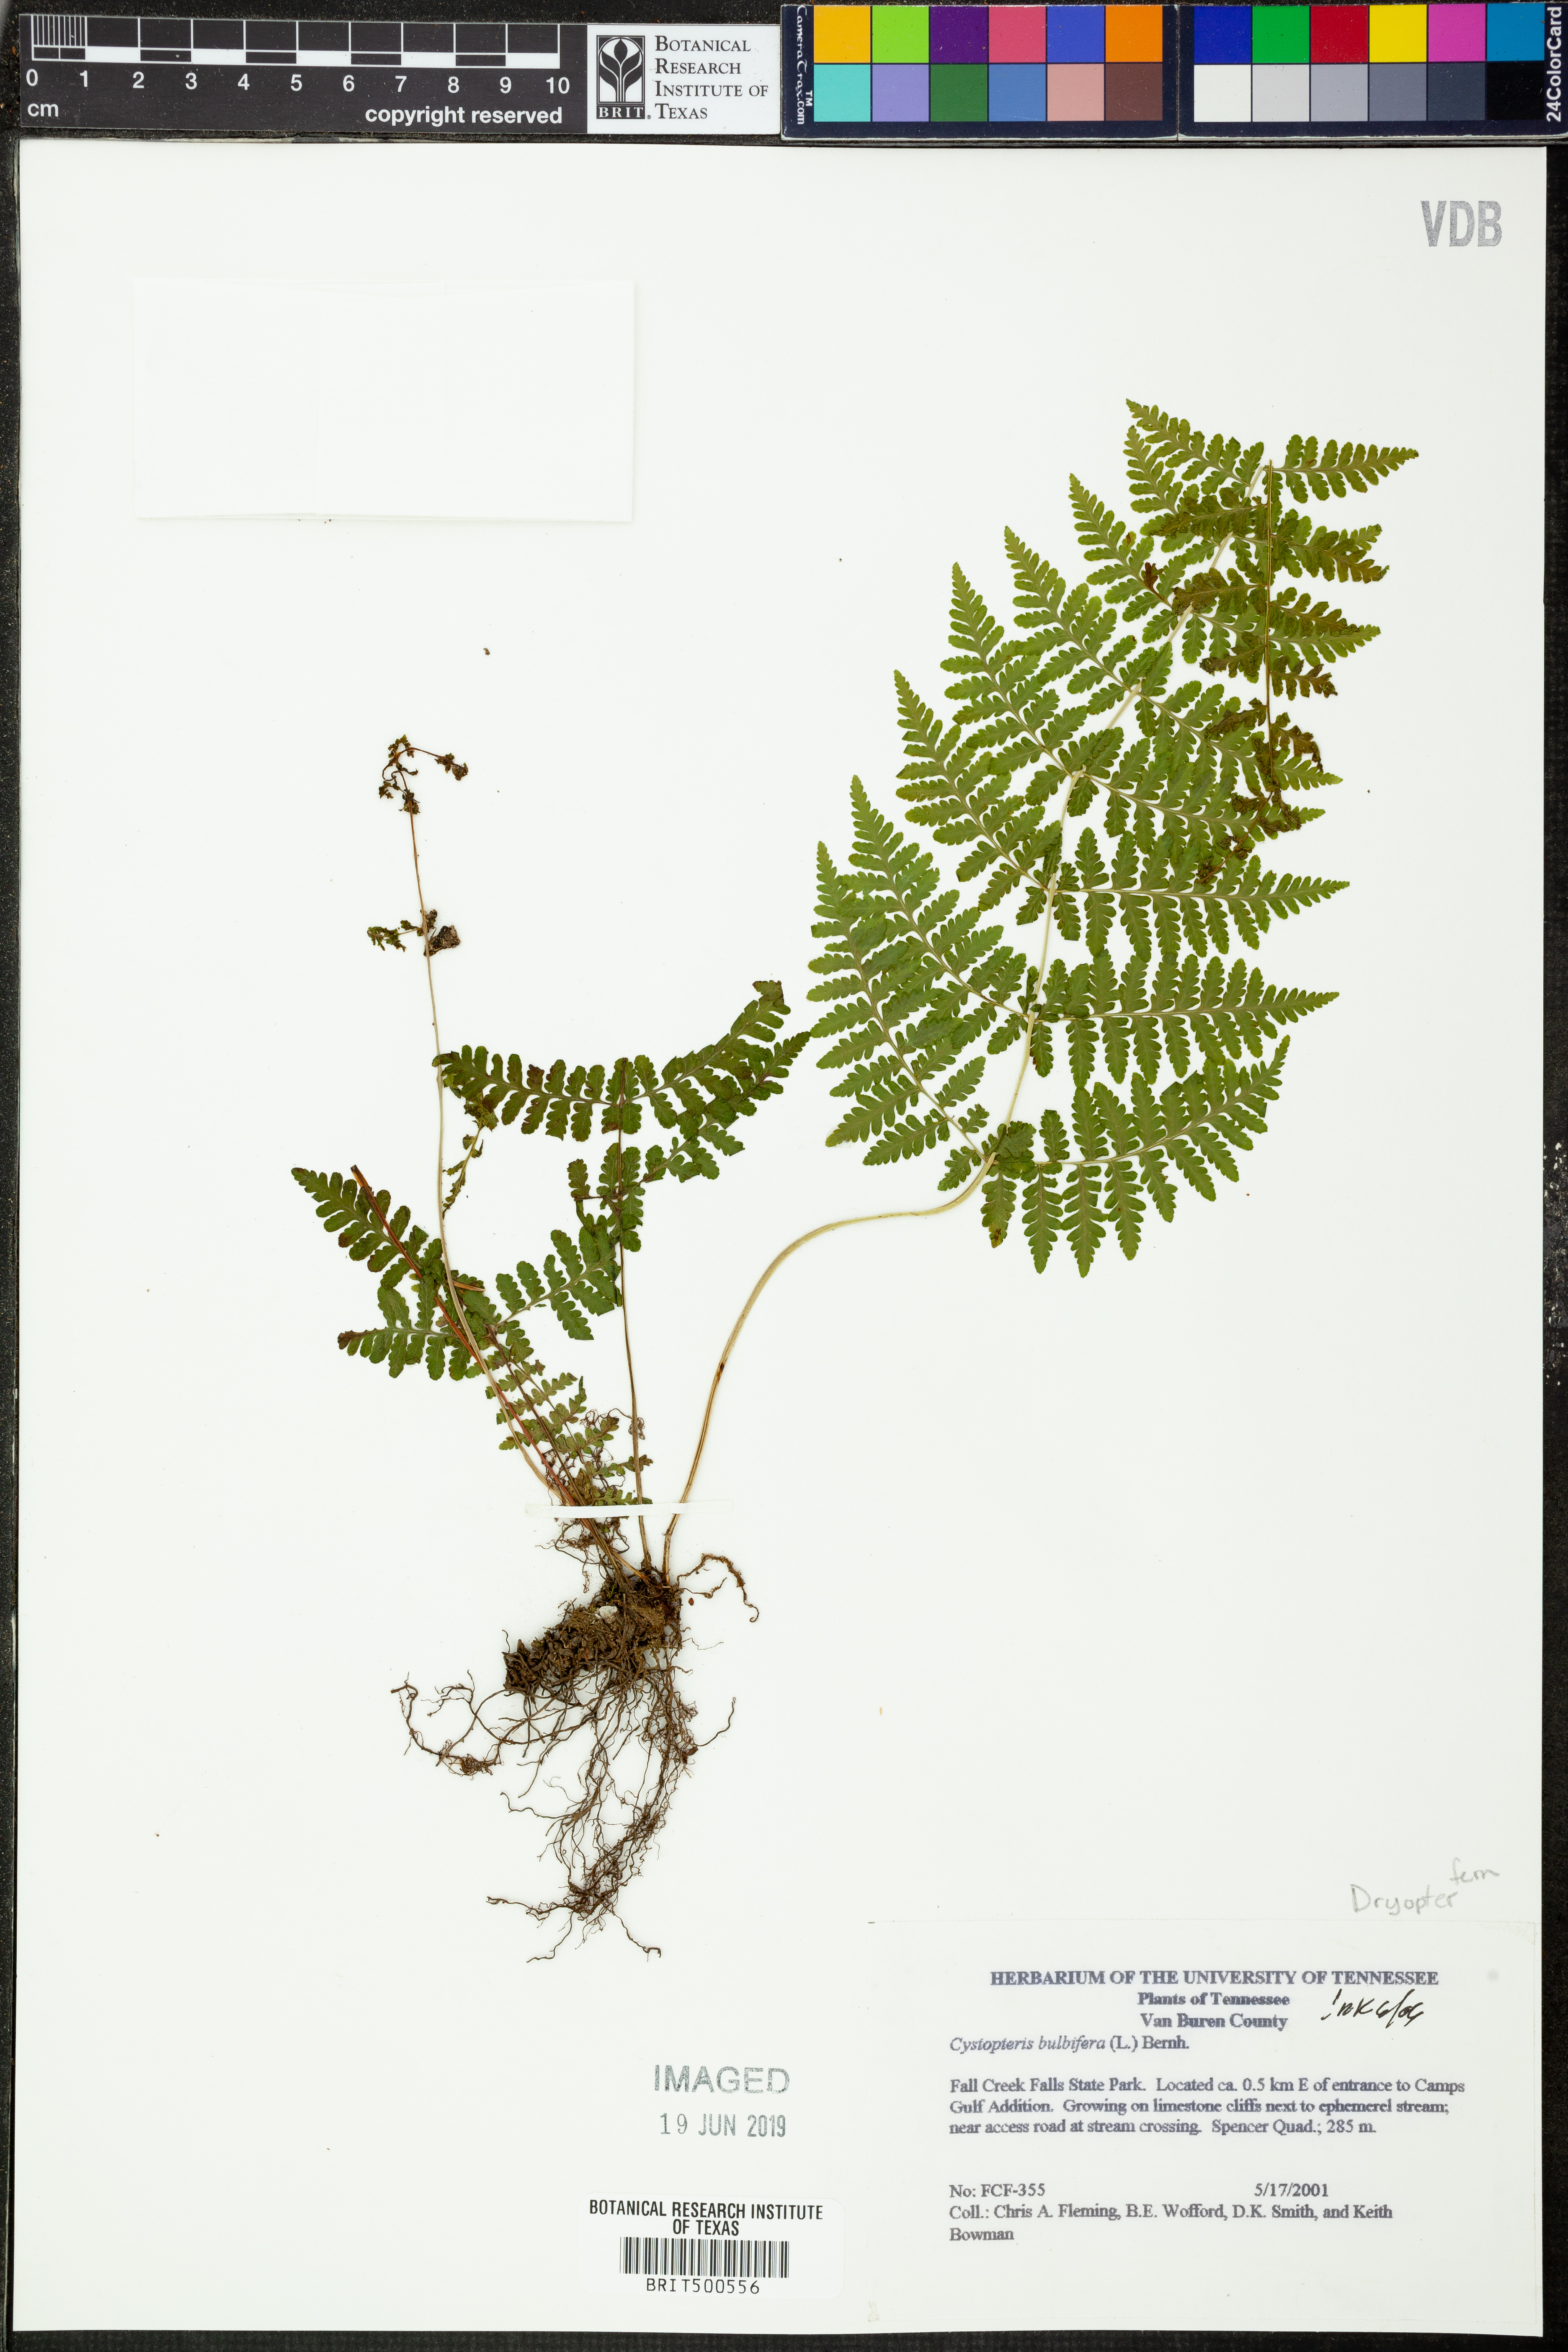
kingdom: Plantae
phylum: Tracheophyta
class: Polypodiopsida
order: Polypodiales
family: Cystopteridaceae
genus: Cystopteris
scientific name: Cystopteris bulbifera
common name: Bulblet bladder fern
